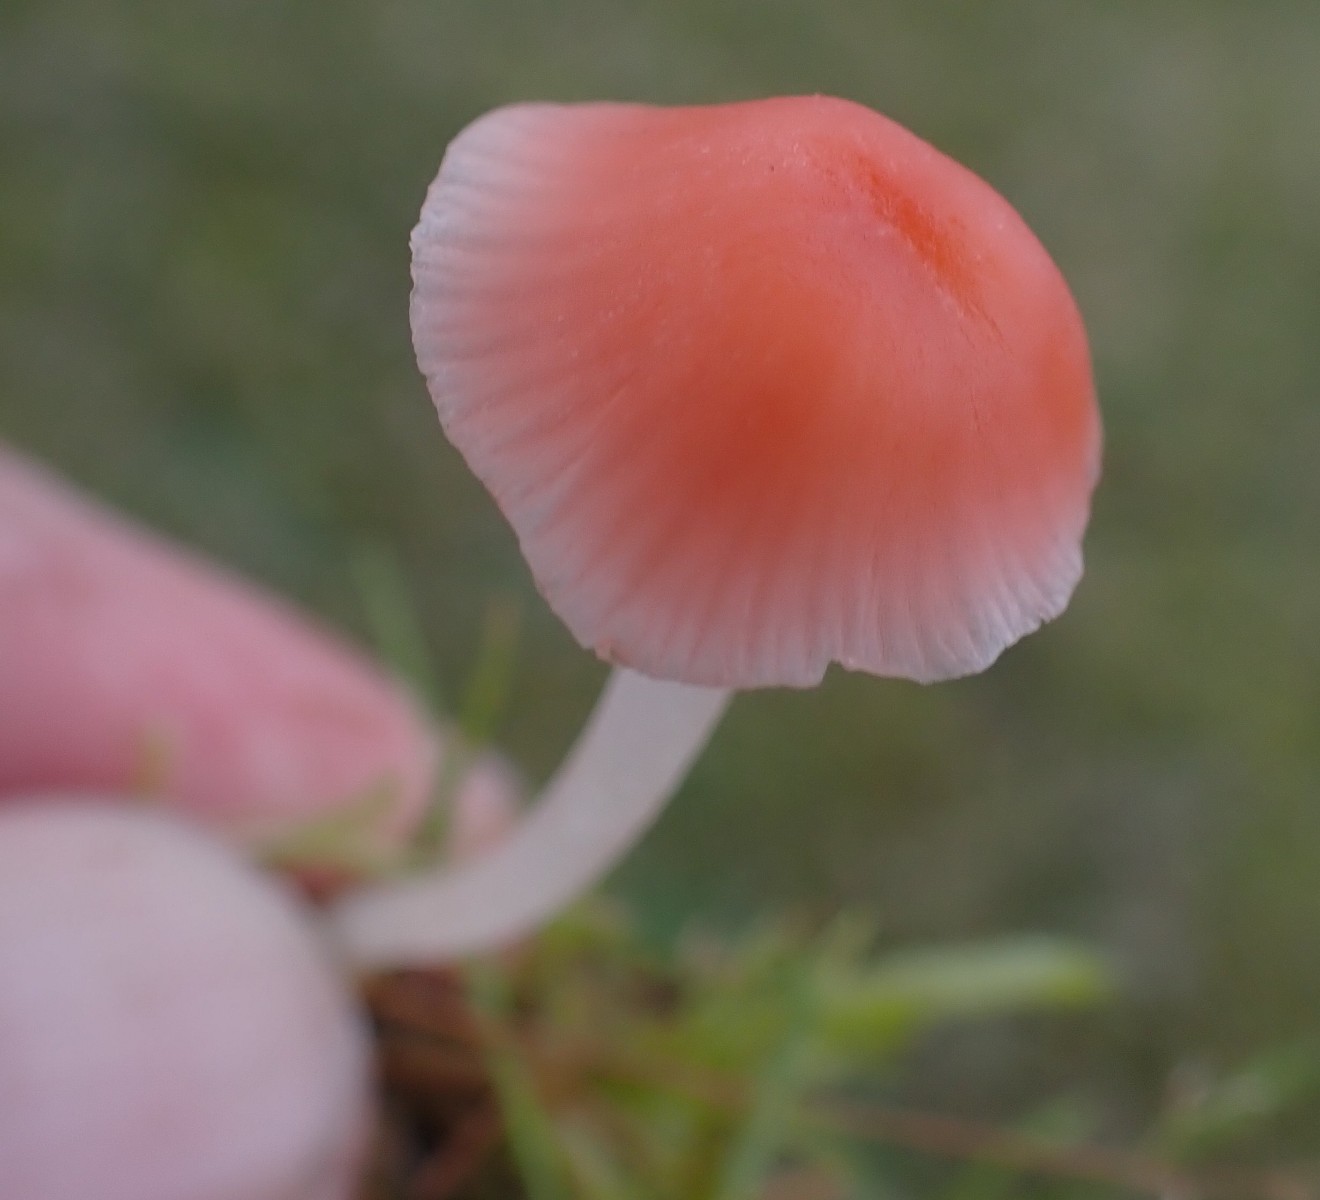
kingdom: Fungi
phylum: Basidiomycota
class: Agaricomycetes
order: Agaricales
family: Mycenaceae
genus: Atheniella
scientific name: Atheniella adonis
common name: rønnerød huesvamp
